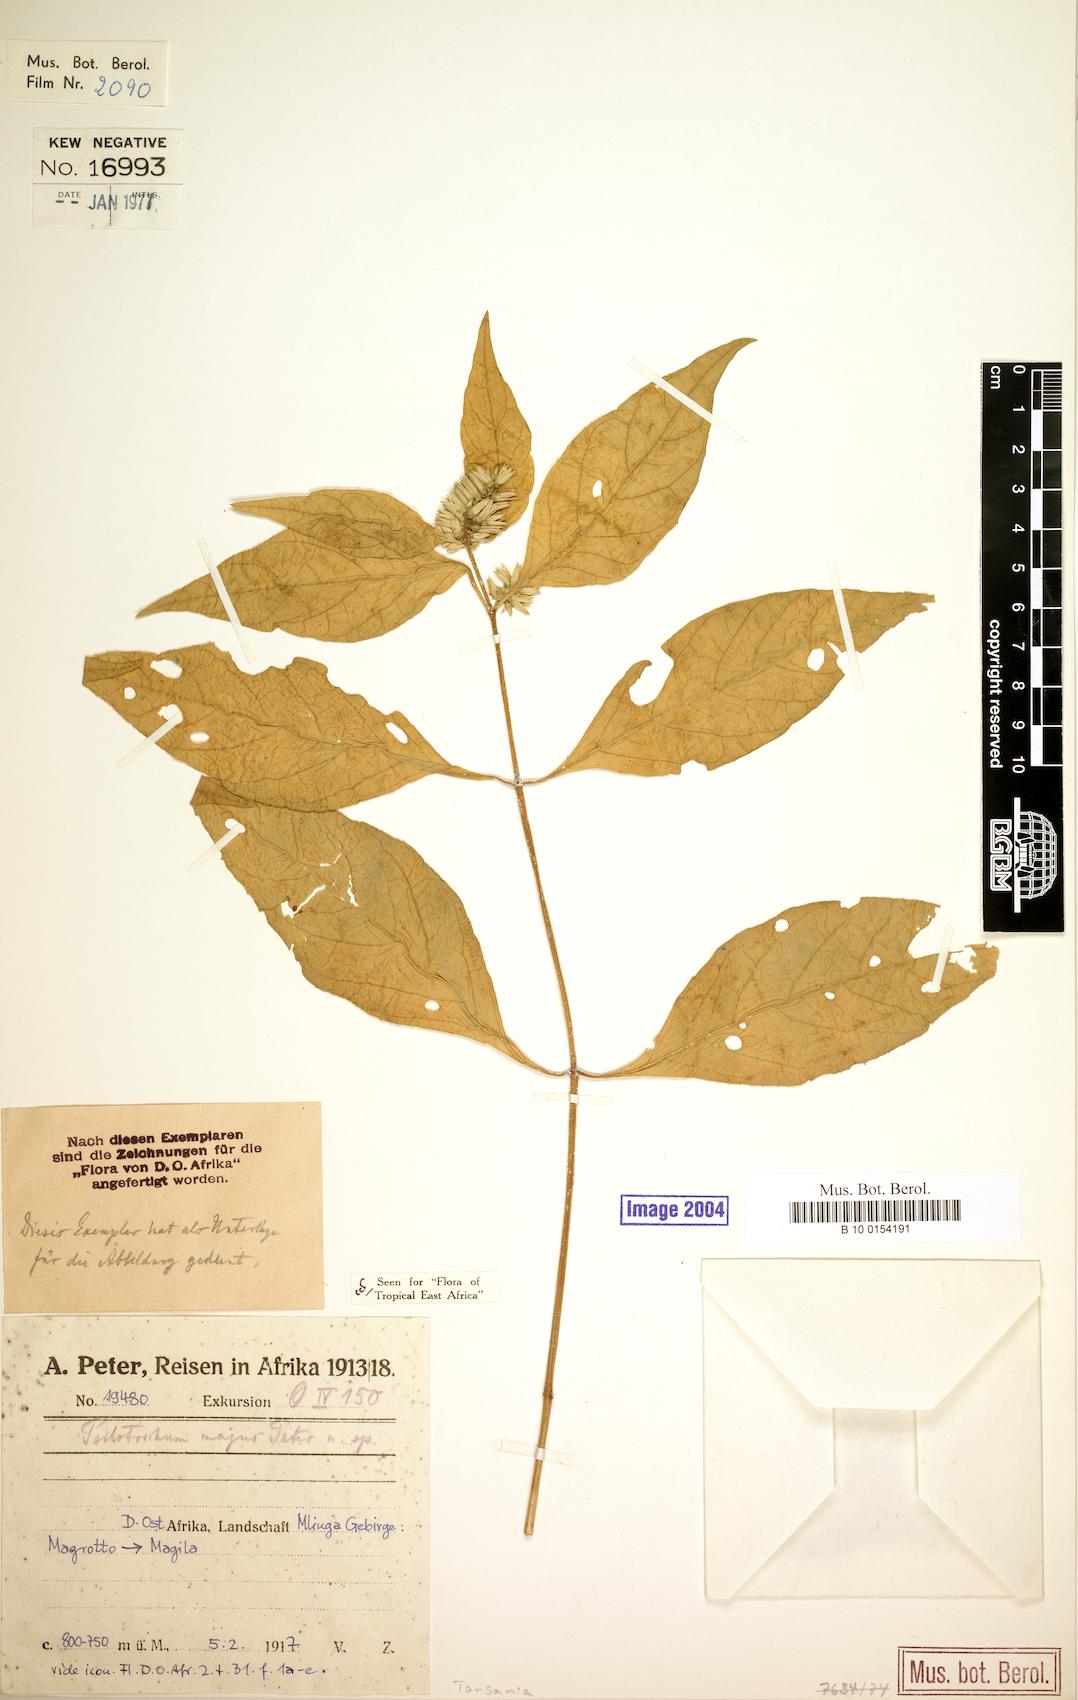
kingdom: Plantae
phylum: Tracheophyta
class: Magnoliopsida
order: Caryophyllales
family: Amaranthaceae
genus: Psilotrichum
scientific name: Psilotrichum majus
